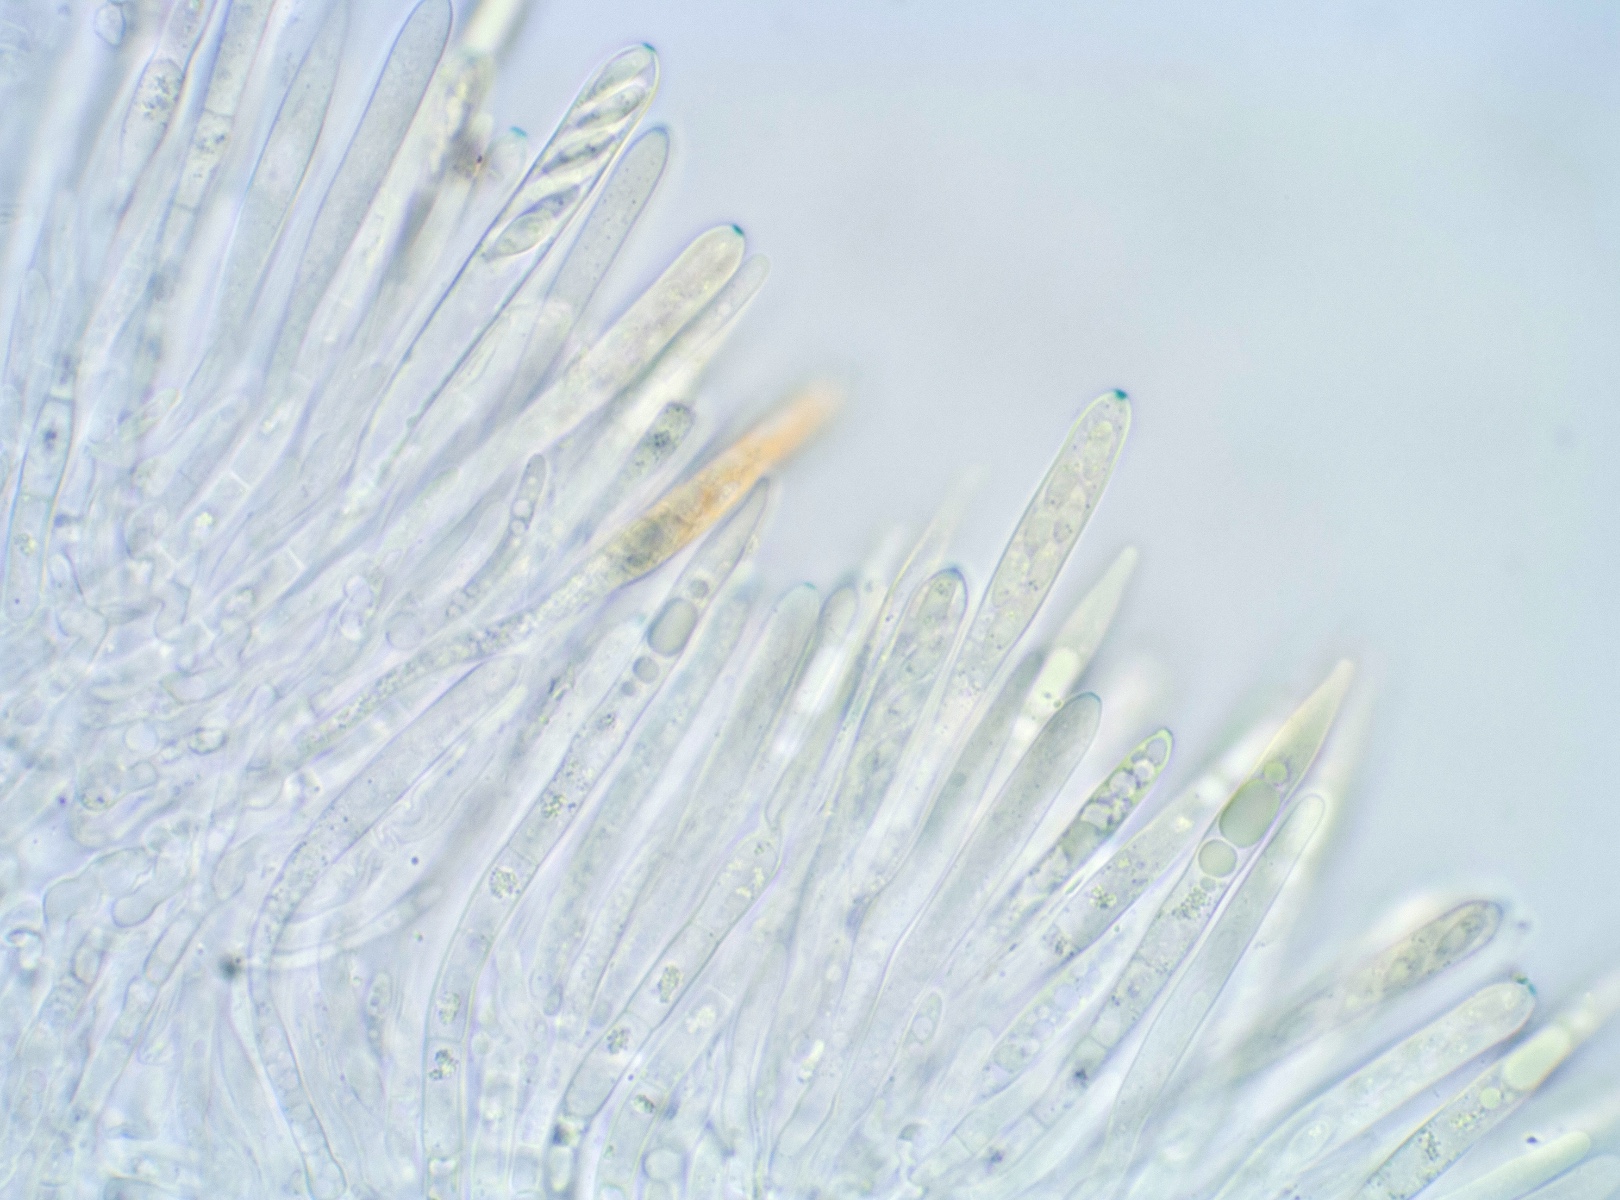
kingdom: Fungi
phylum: Ascomycota
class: Leotiomycetes
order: Helotiales
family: Dermateaceae
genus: Hysterostegiella
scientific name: Hysterostegiella valvata
